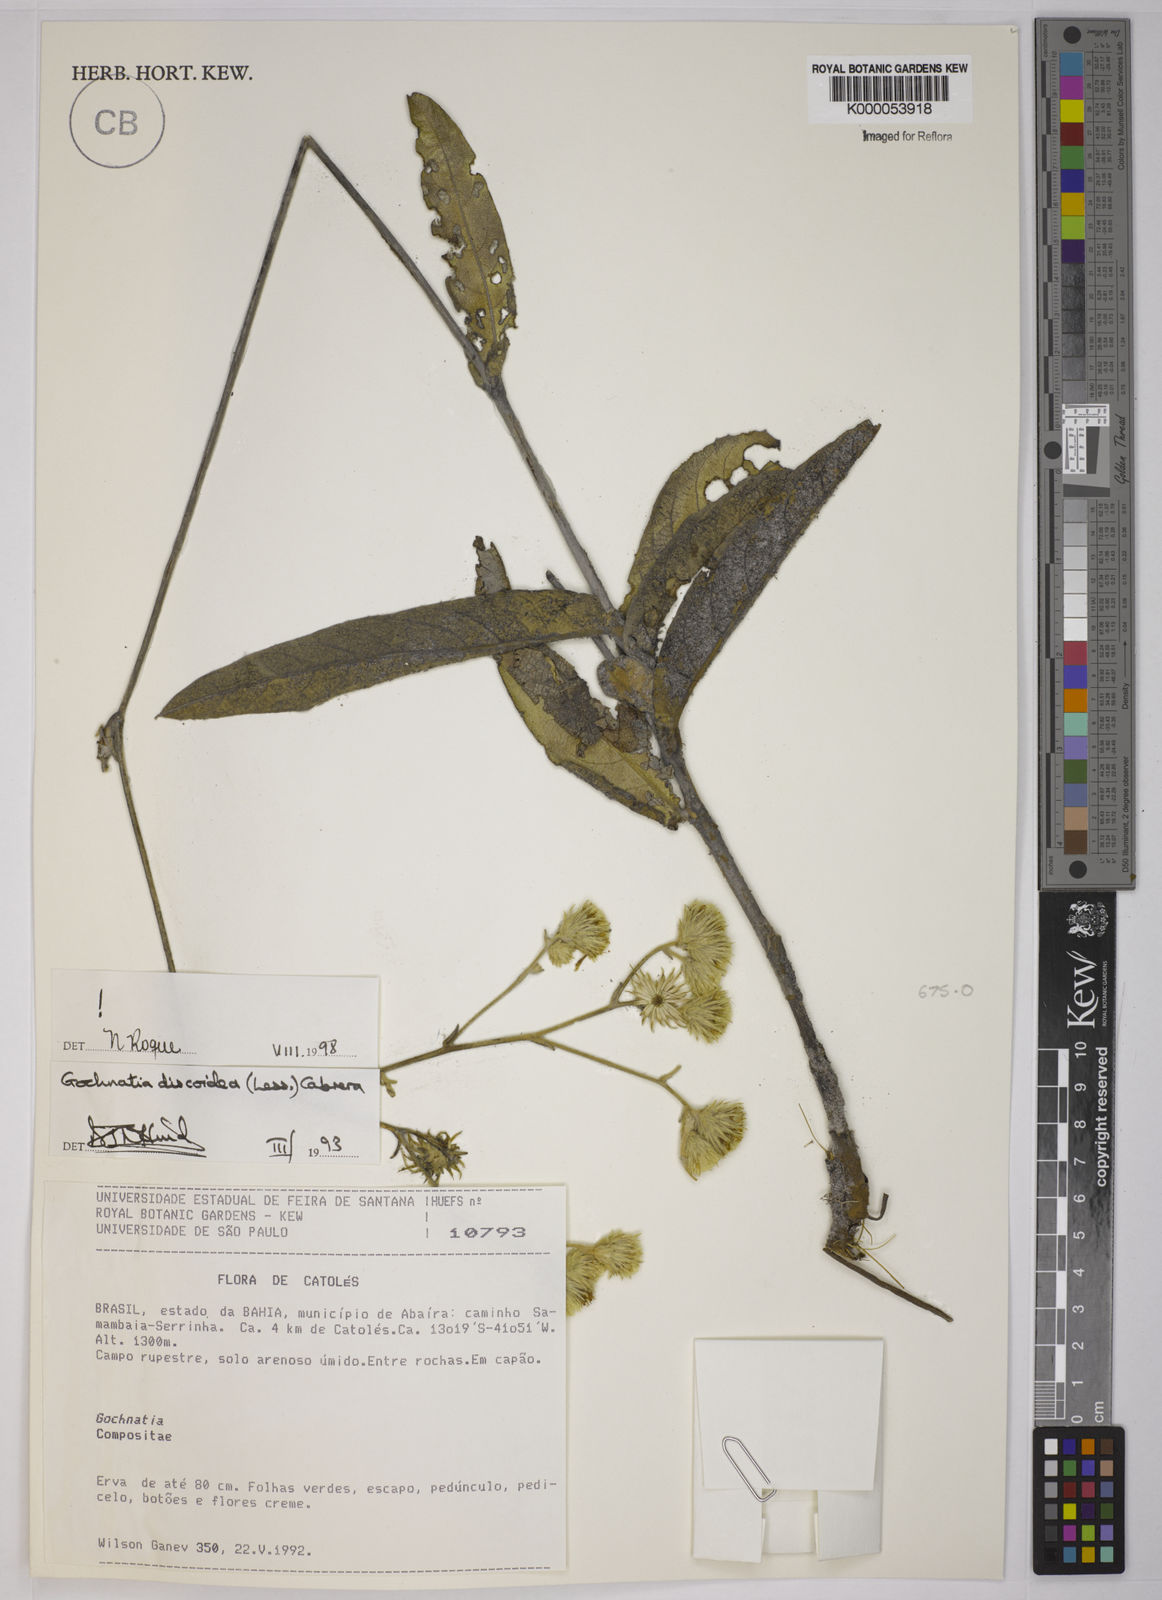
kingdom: Plantae
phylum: Tracheophyta
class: Magnoliopsida
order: Asterales
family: Asteraceae
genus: Richterago
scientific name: Richterago discoidea
